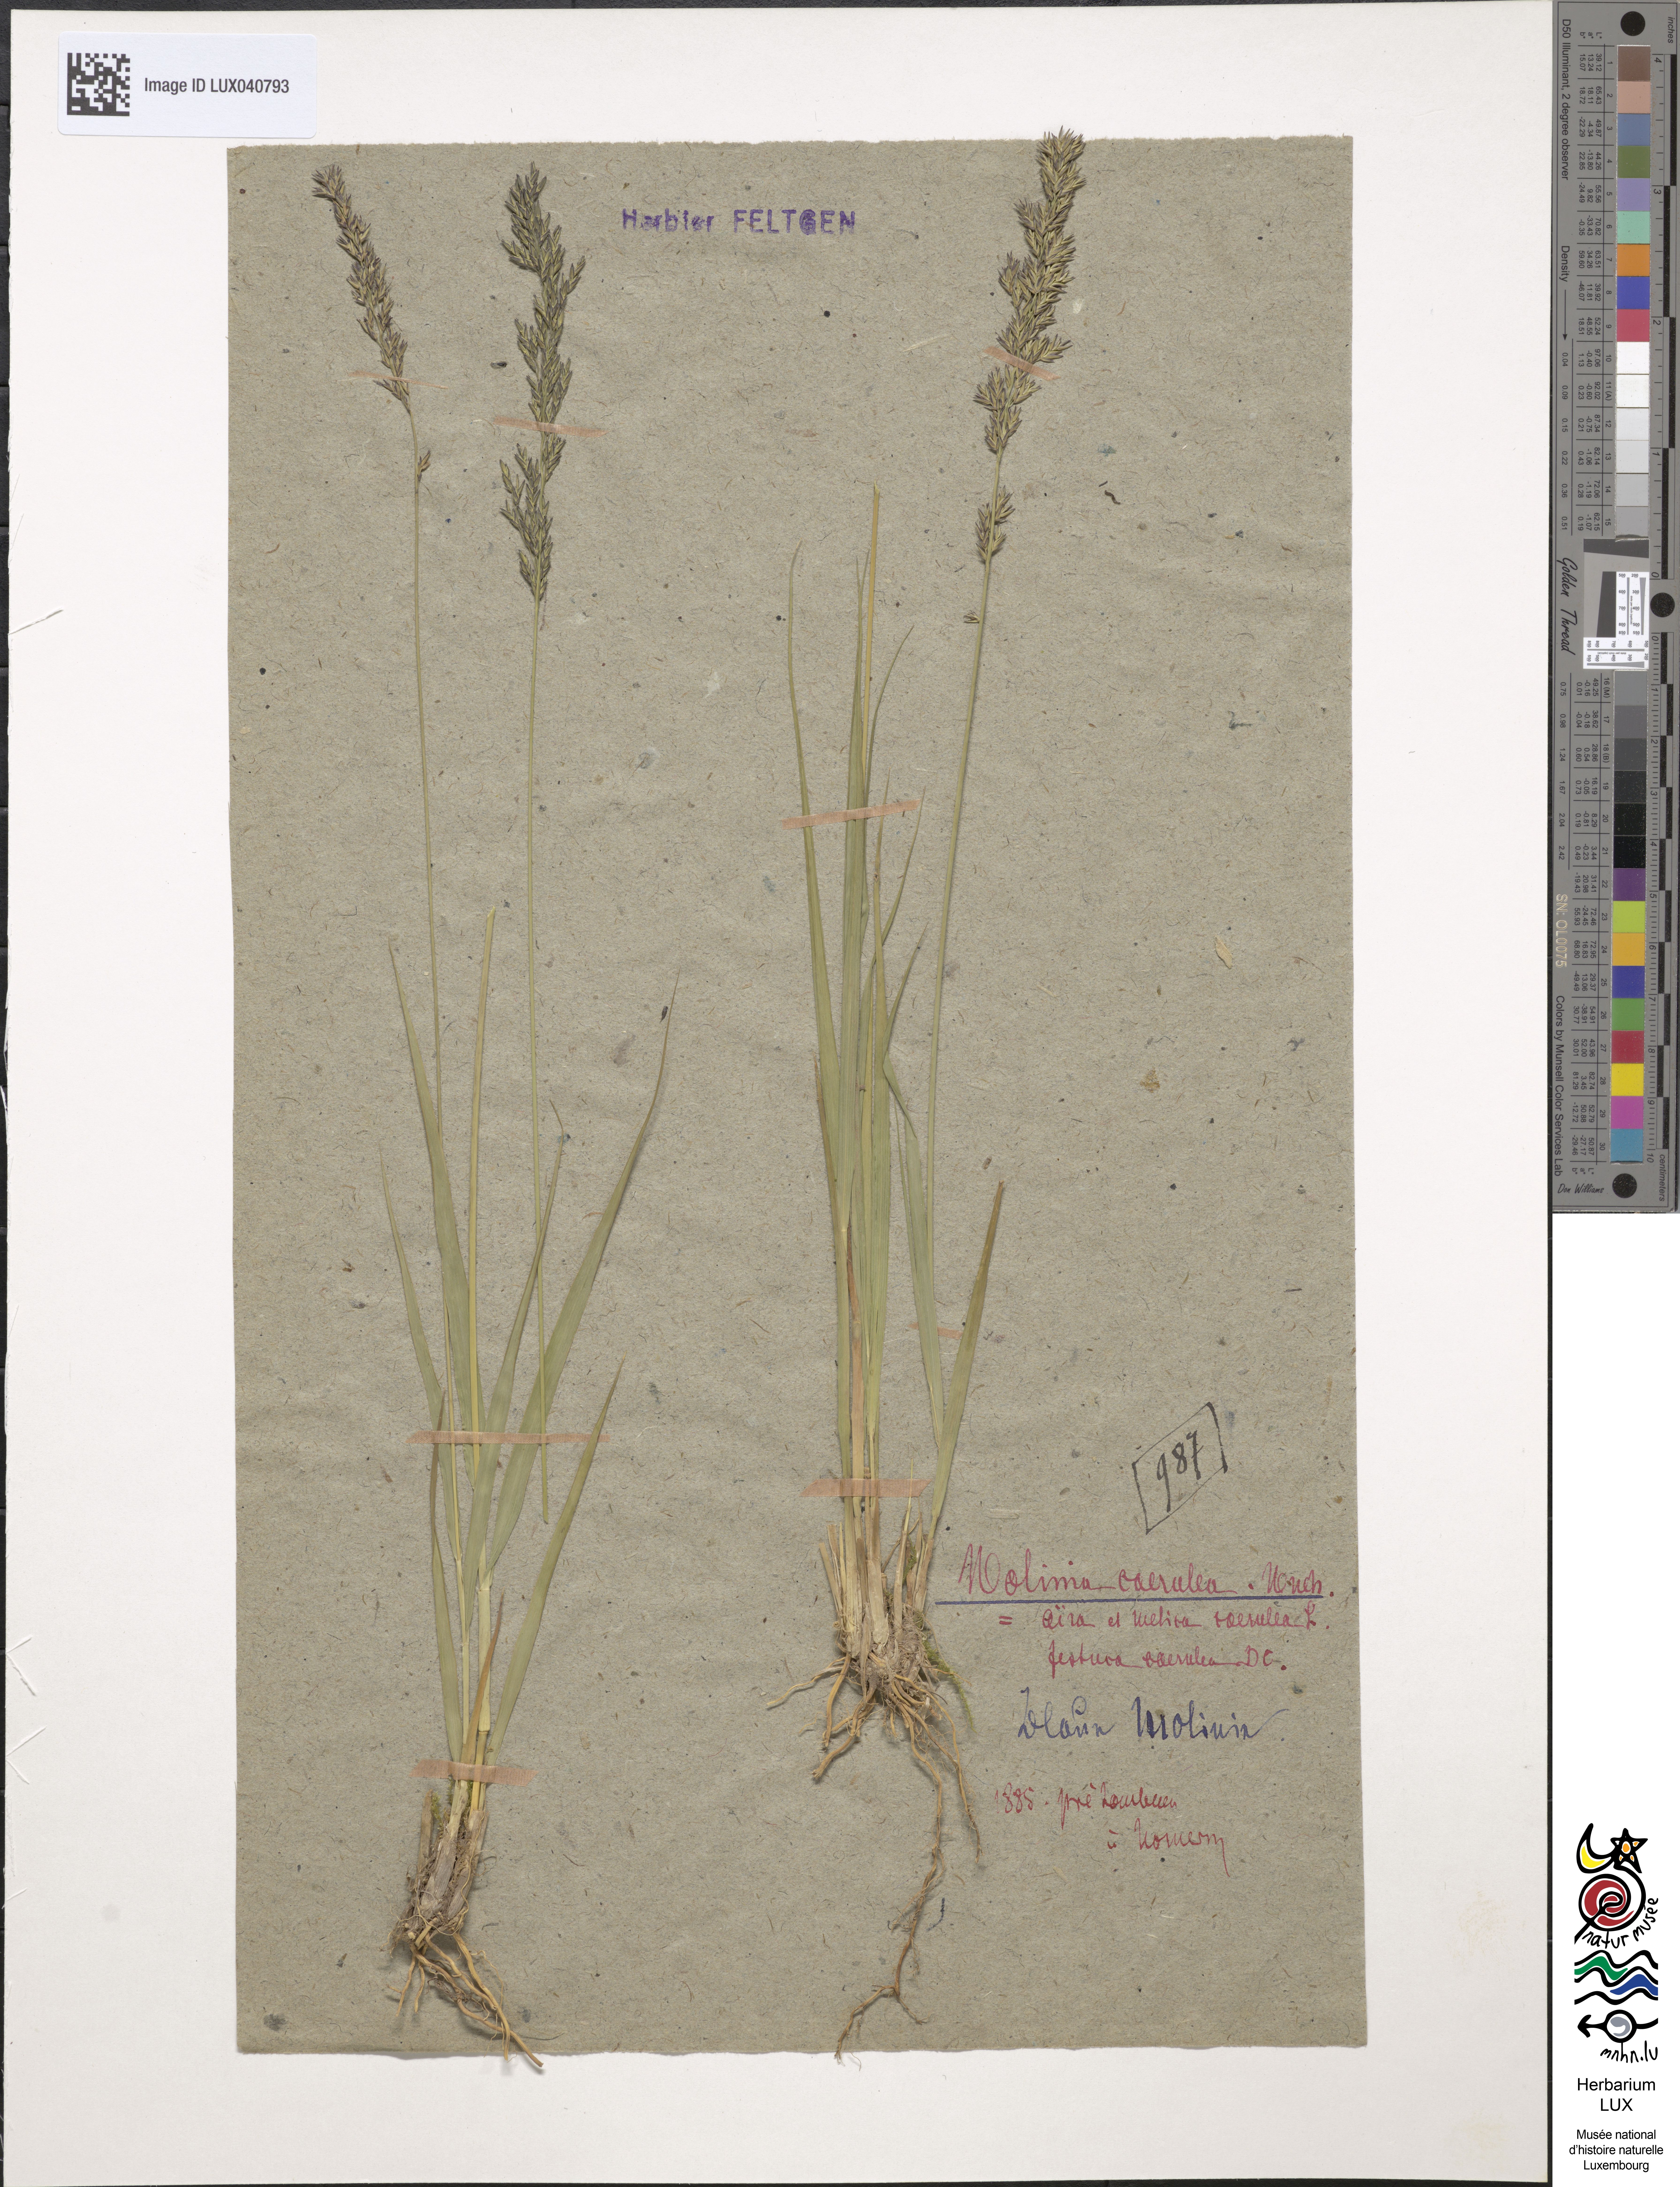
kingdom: Plantae
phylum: Tracheophyta
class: Liliopsida
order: Poales
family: Poaceae
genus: Molinia
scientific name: Molinia caerulea
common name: Purple moor-grass
